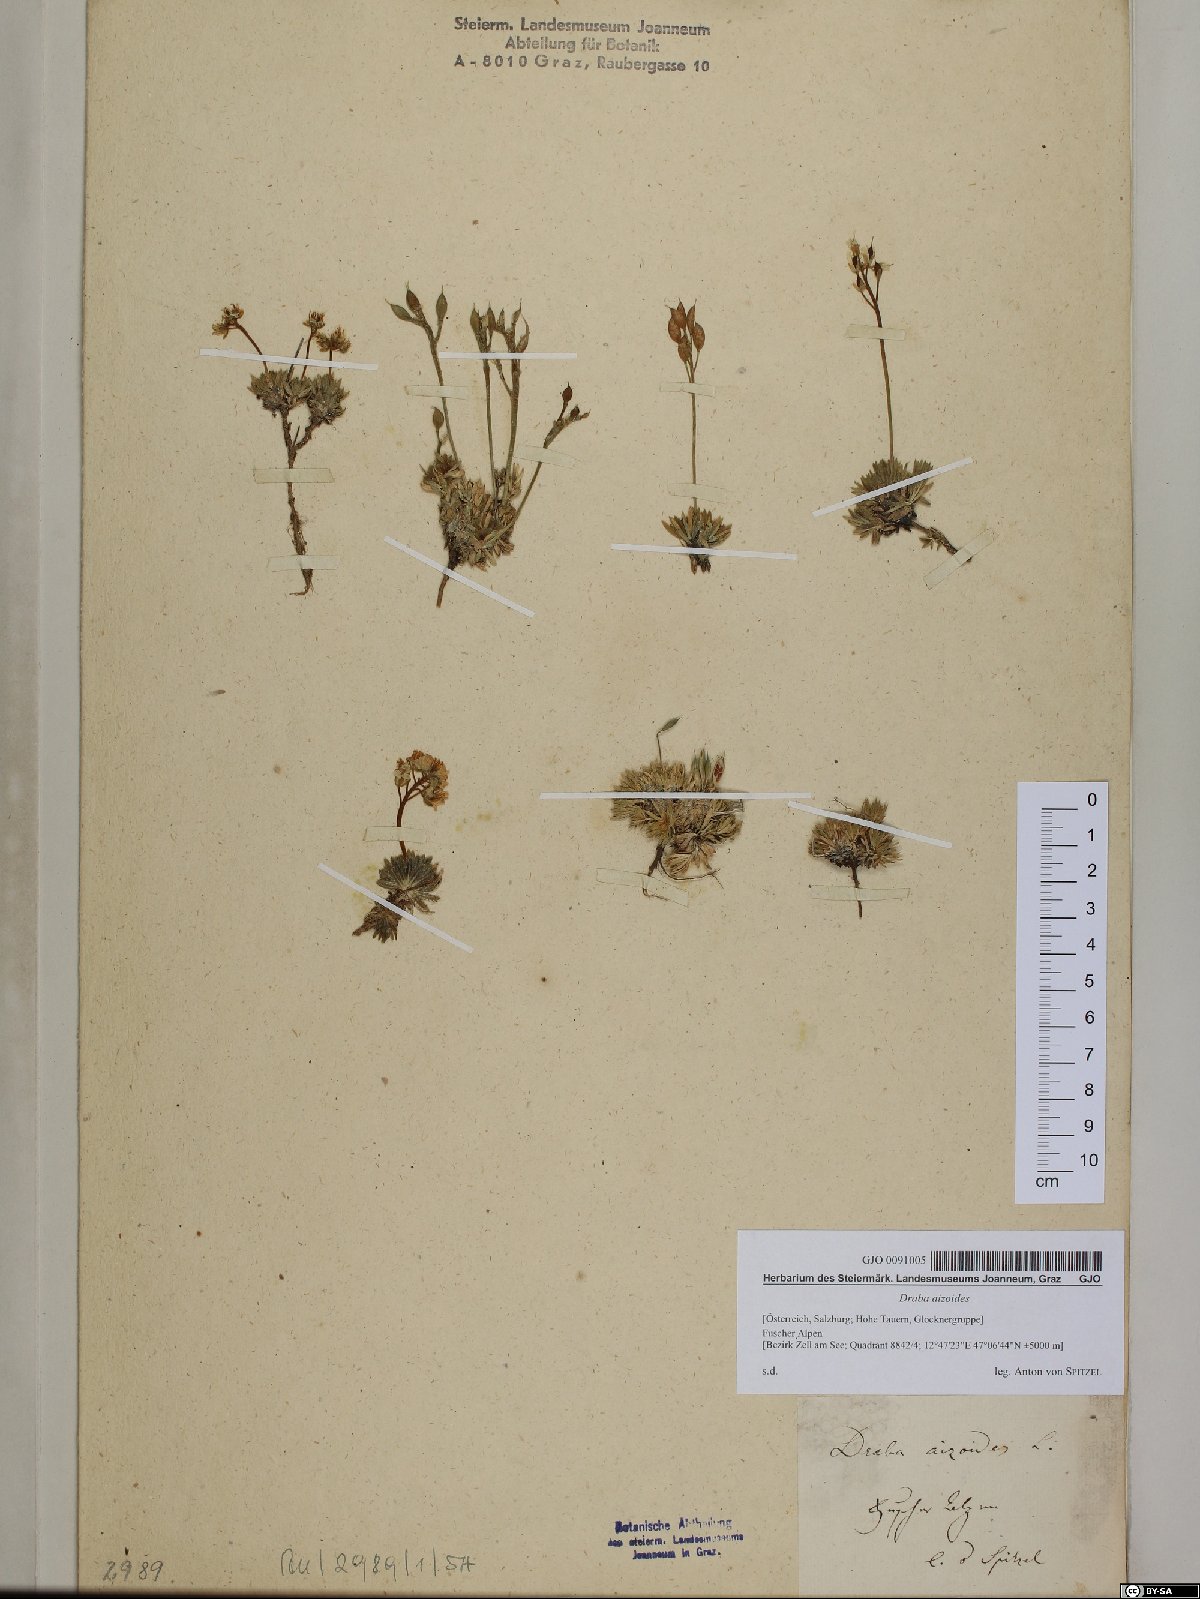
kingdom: Plantae
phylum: Tracheophyta
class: Magnoliopsida
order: Brassicales
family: Brassicaceae
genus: Draba
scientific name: Draba aizoides
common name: Yellow whitlowgrass
